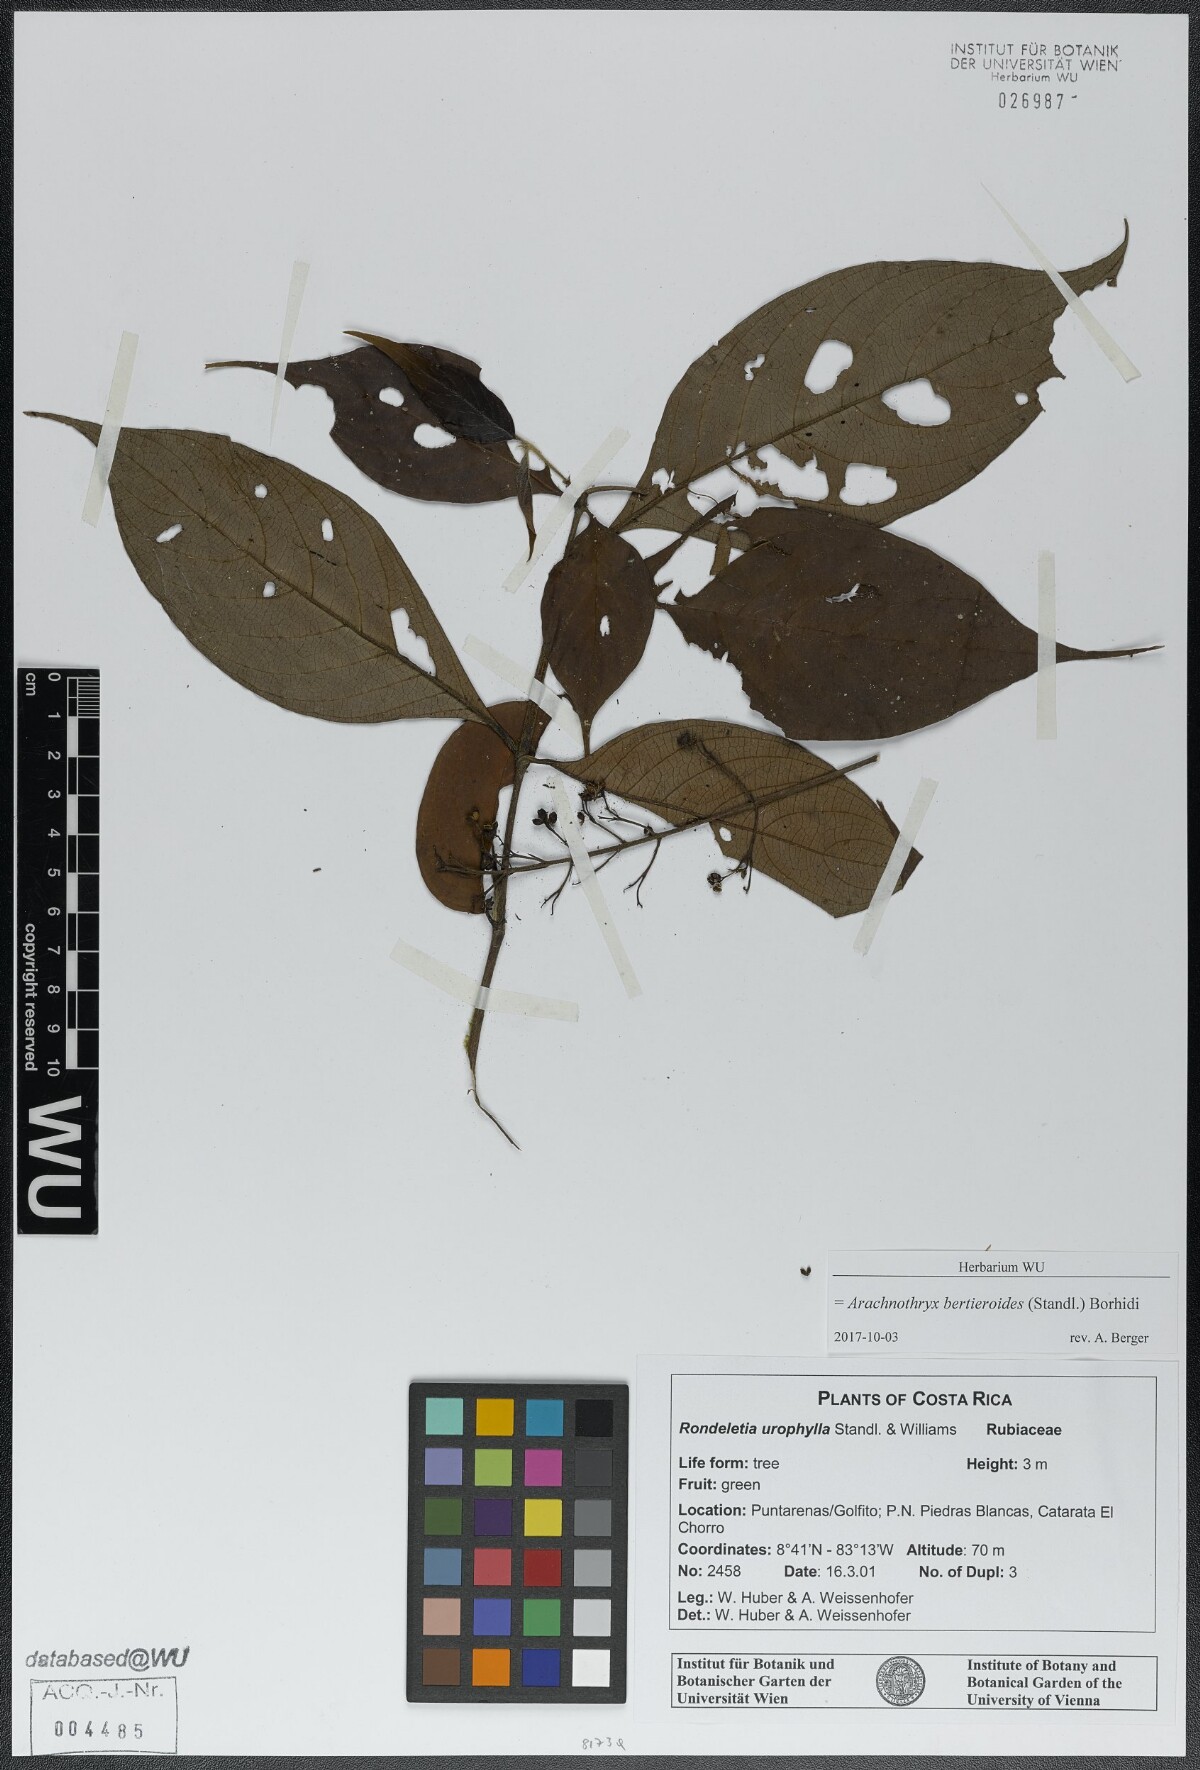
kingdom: Plantae
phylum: Tracheophyta
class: Magnoliopsida
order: Gentianales
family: Rubiaceae
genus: Arachnothryx
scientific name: Arachnothryx bertieroides
